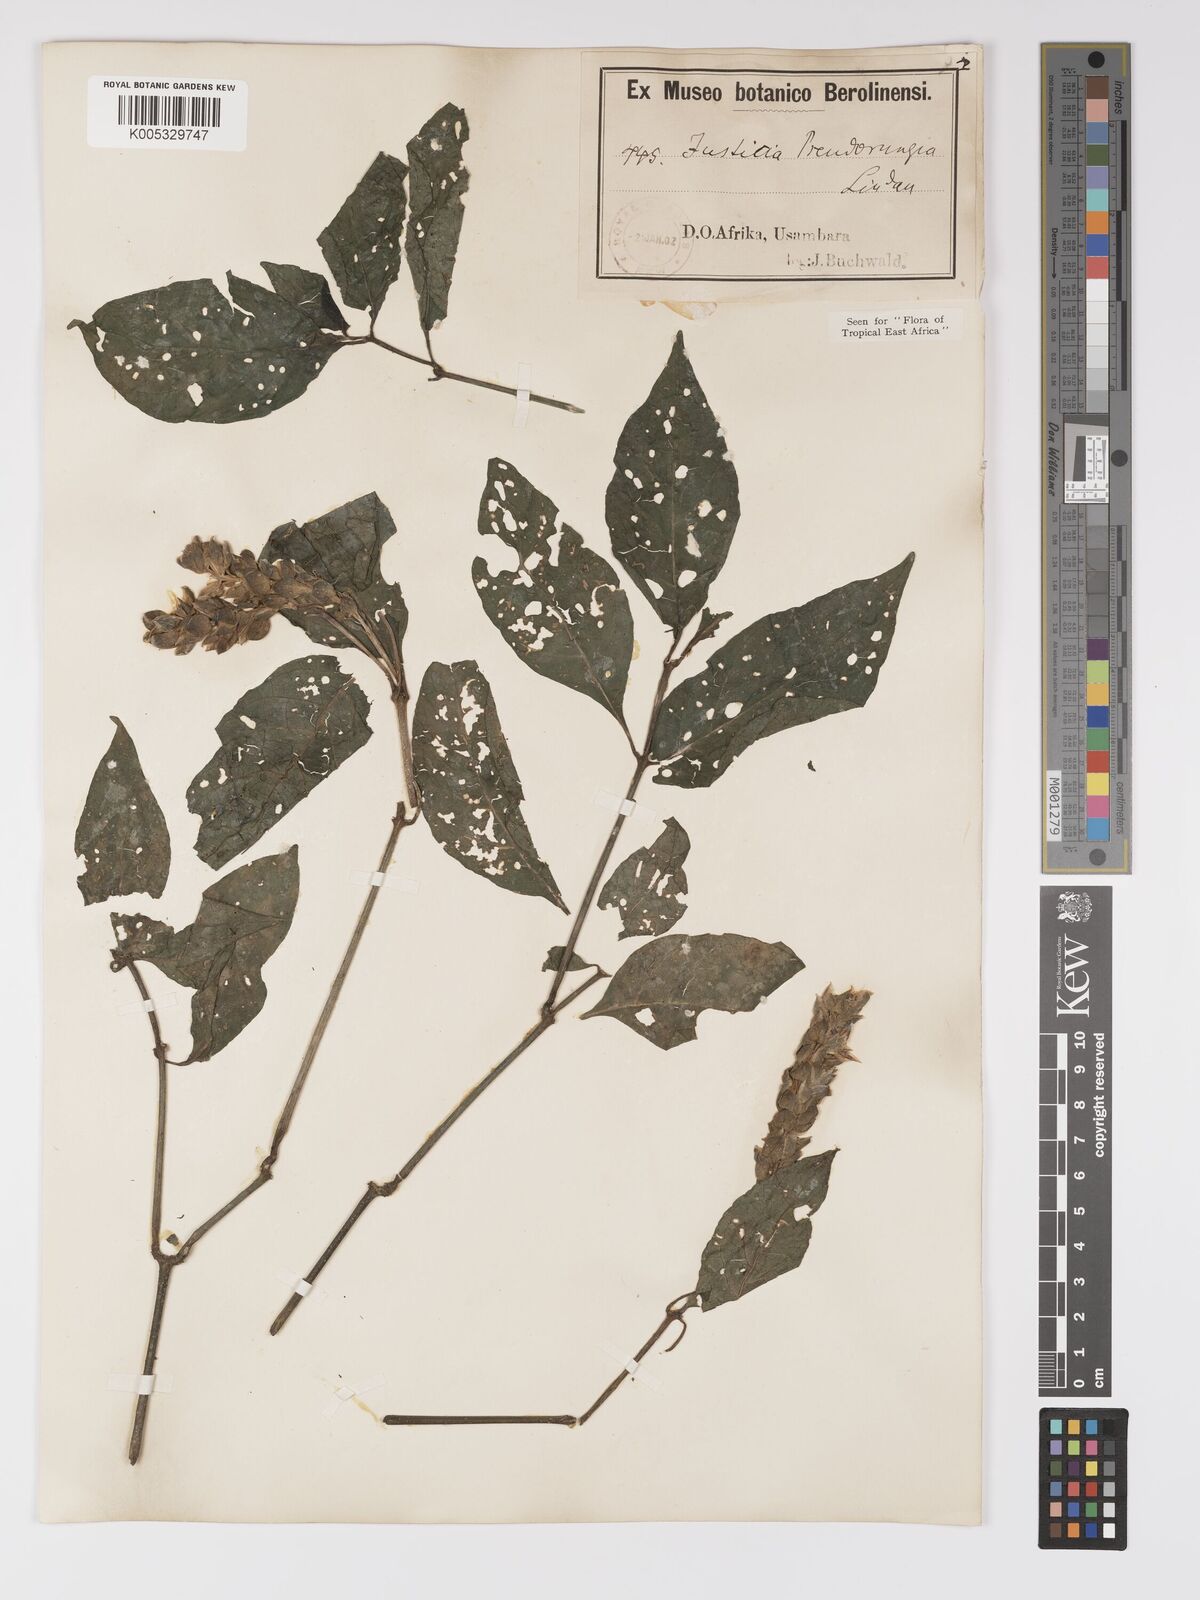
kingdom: Plantae
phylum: Tracheophyta
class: Magnoliopsida
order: Lamiales
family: Acanthaceae
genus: Justicia
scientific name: Justicia pseudorungia
